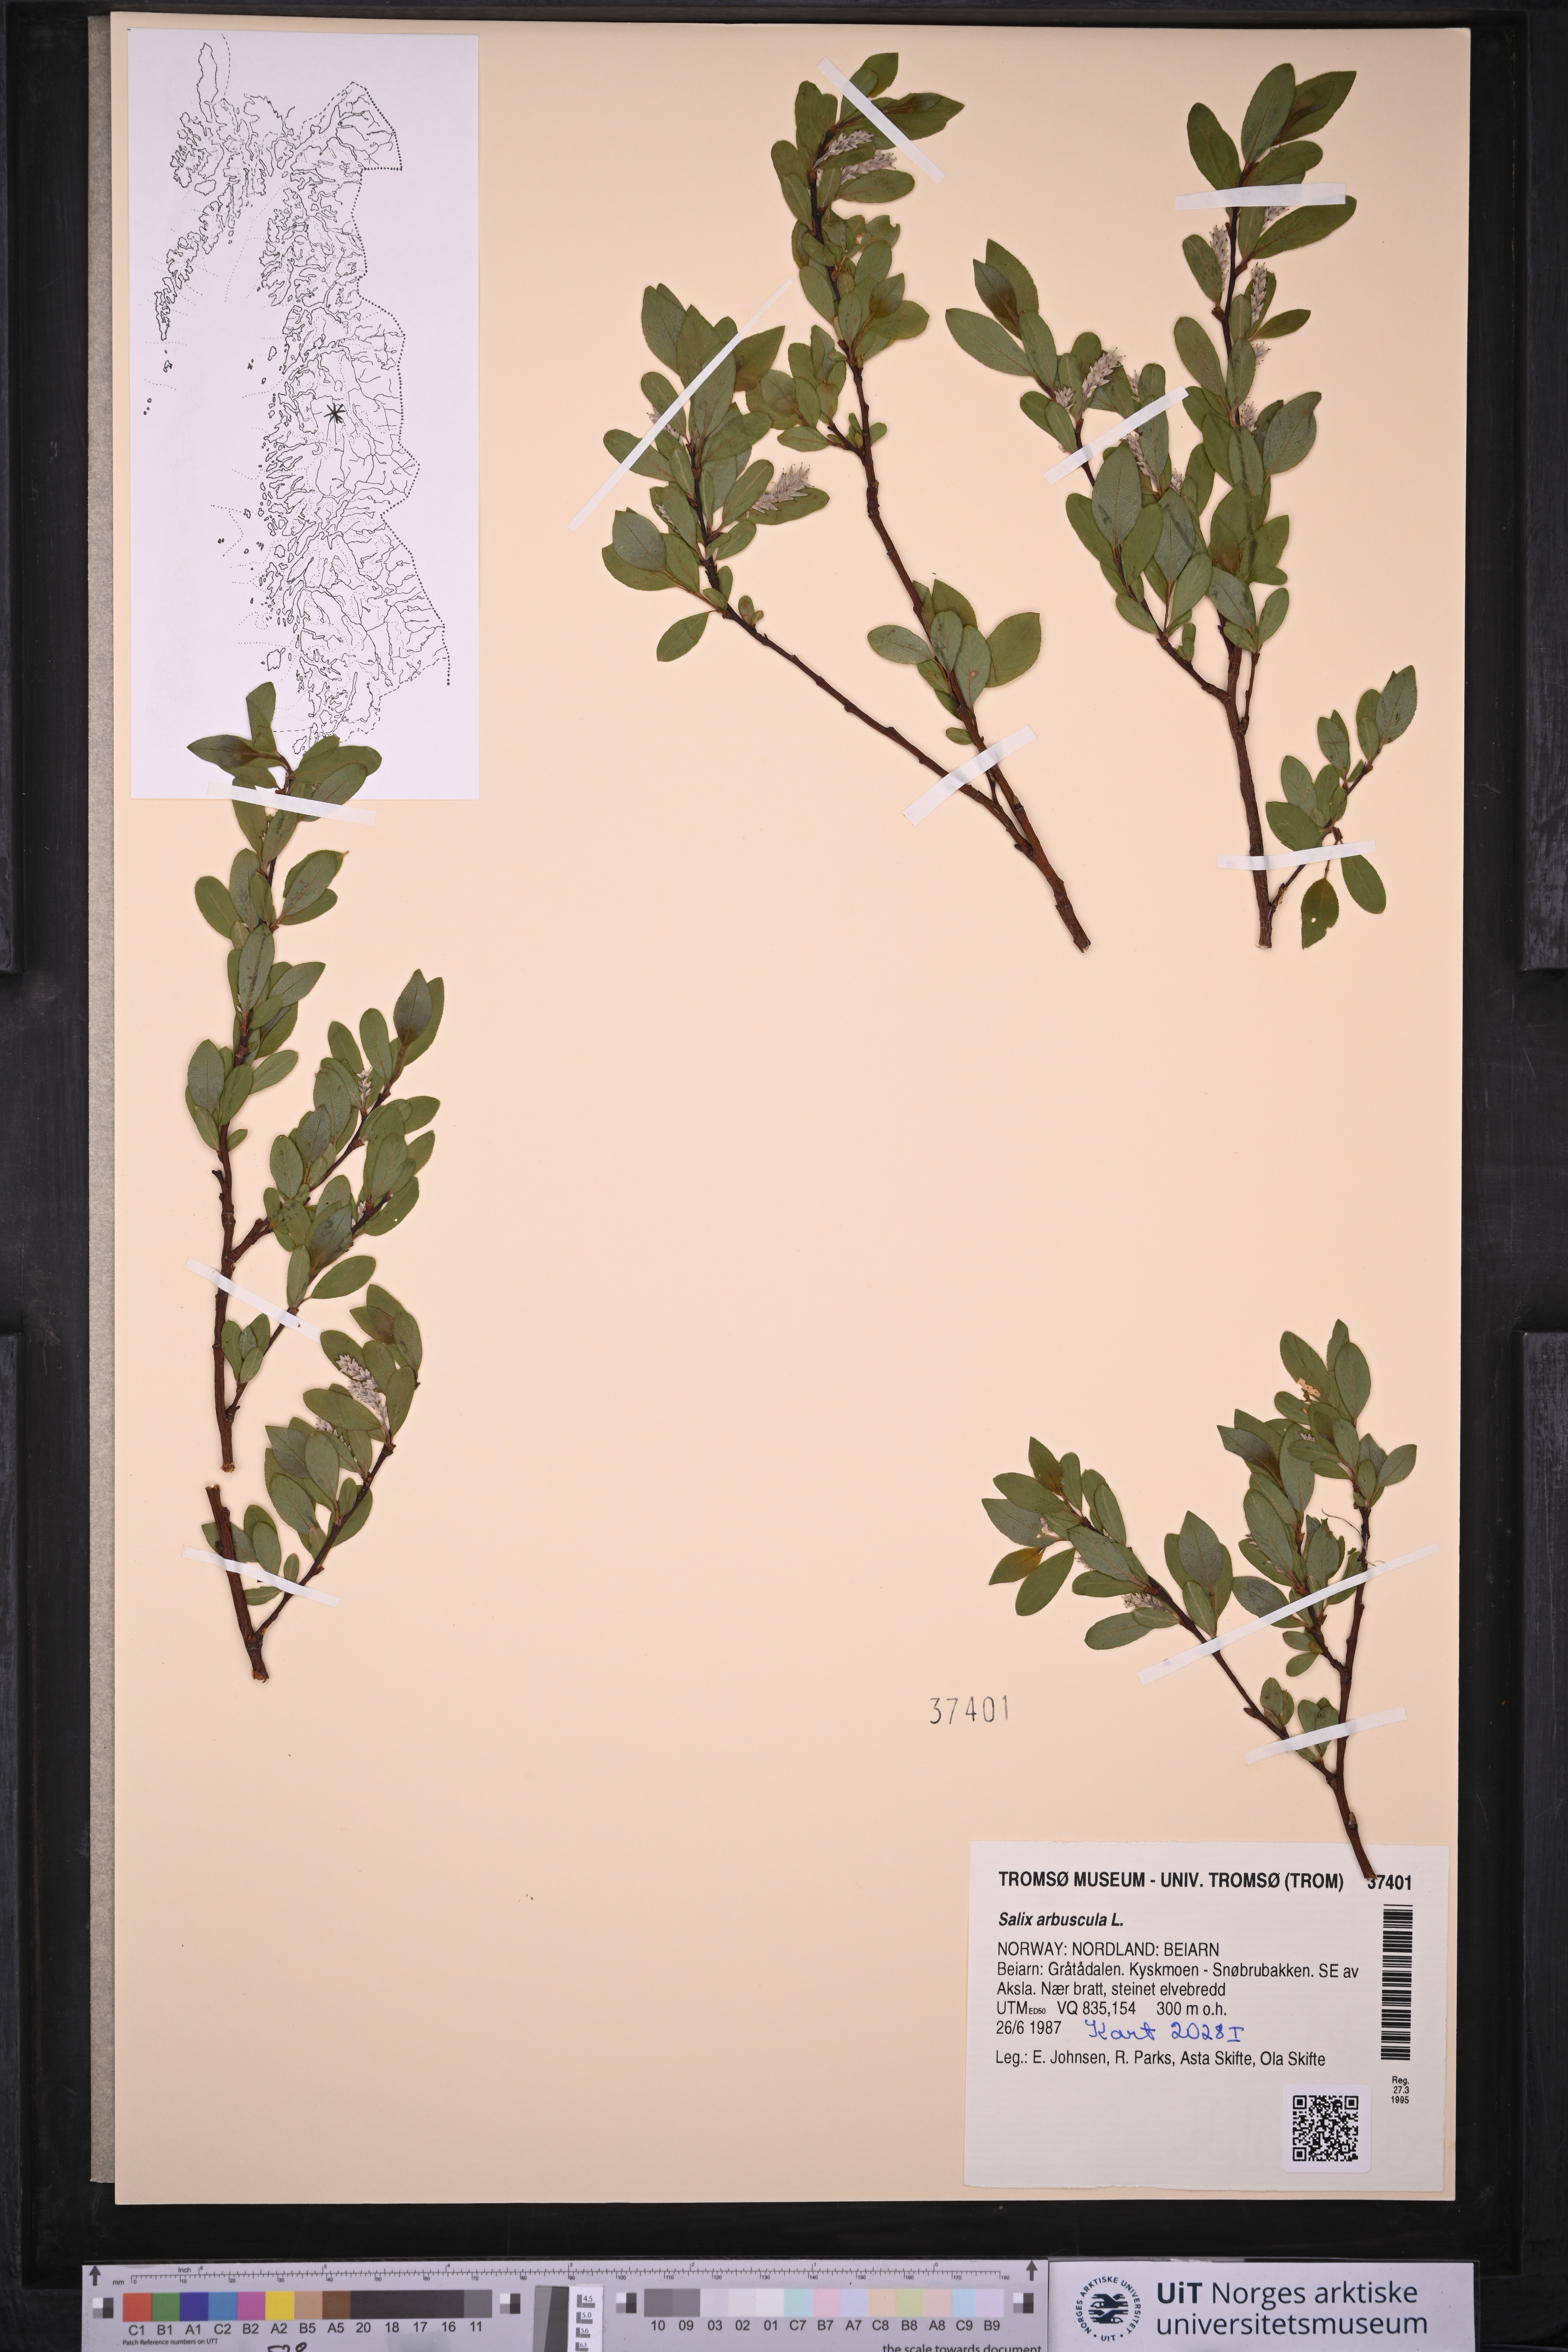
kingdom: Plantae
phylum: Tracheophyta
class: Magnoliopsida
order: Malpighiales
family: Salicaceae
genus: Salix
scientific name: Salix arbuscula
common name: Mountain willow
